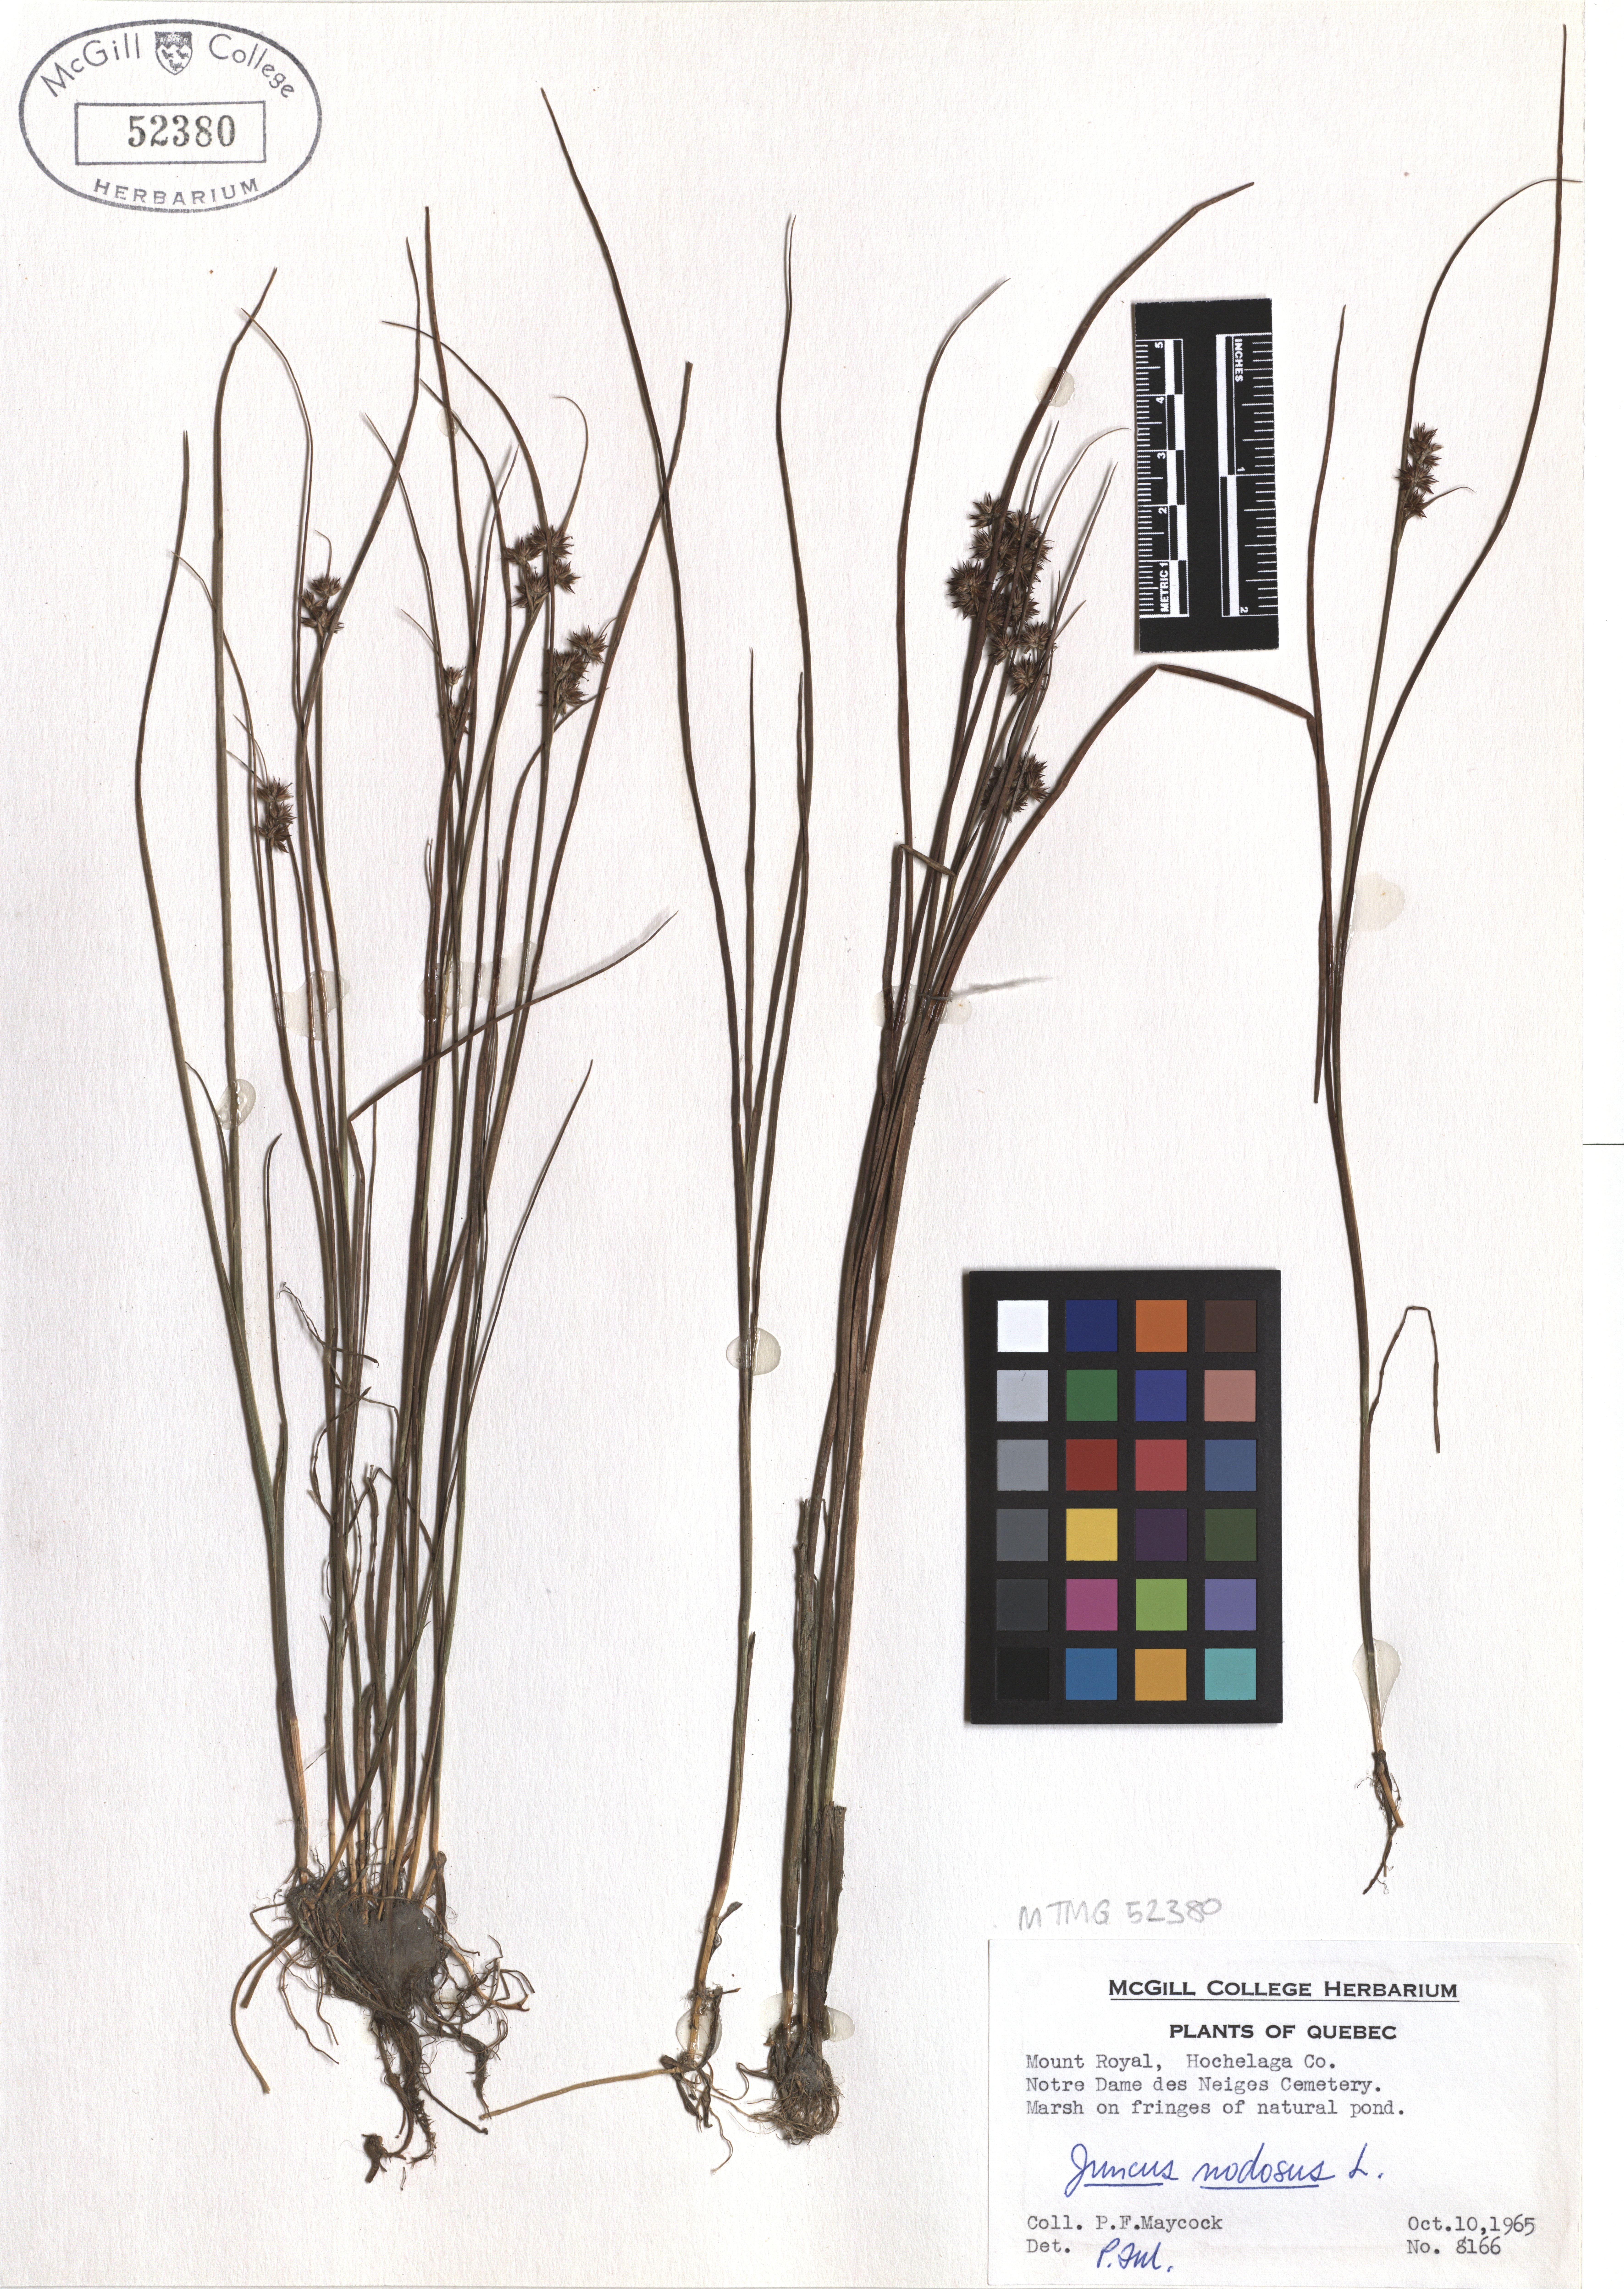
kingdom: Plantae
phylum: Tracheophyta
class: Liliopsida
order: Poales
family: Juncaceae
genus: Juncus
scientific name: Juncus nodosus
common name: Knotted rush
